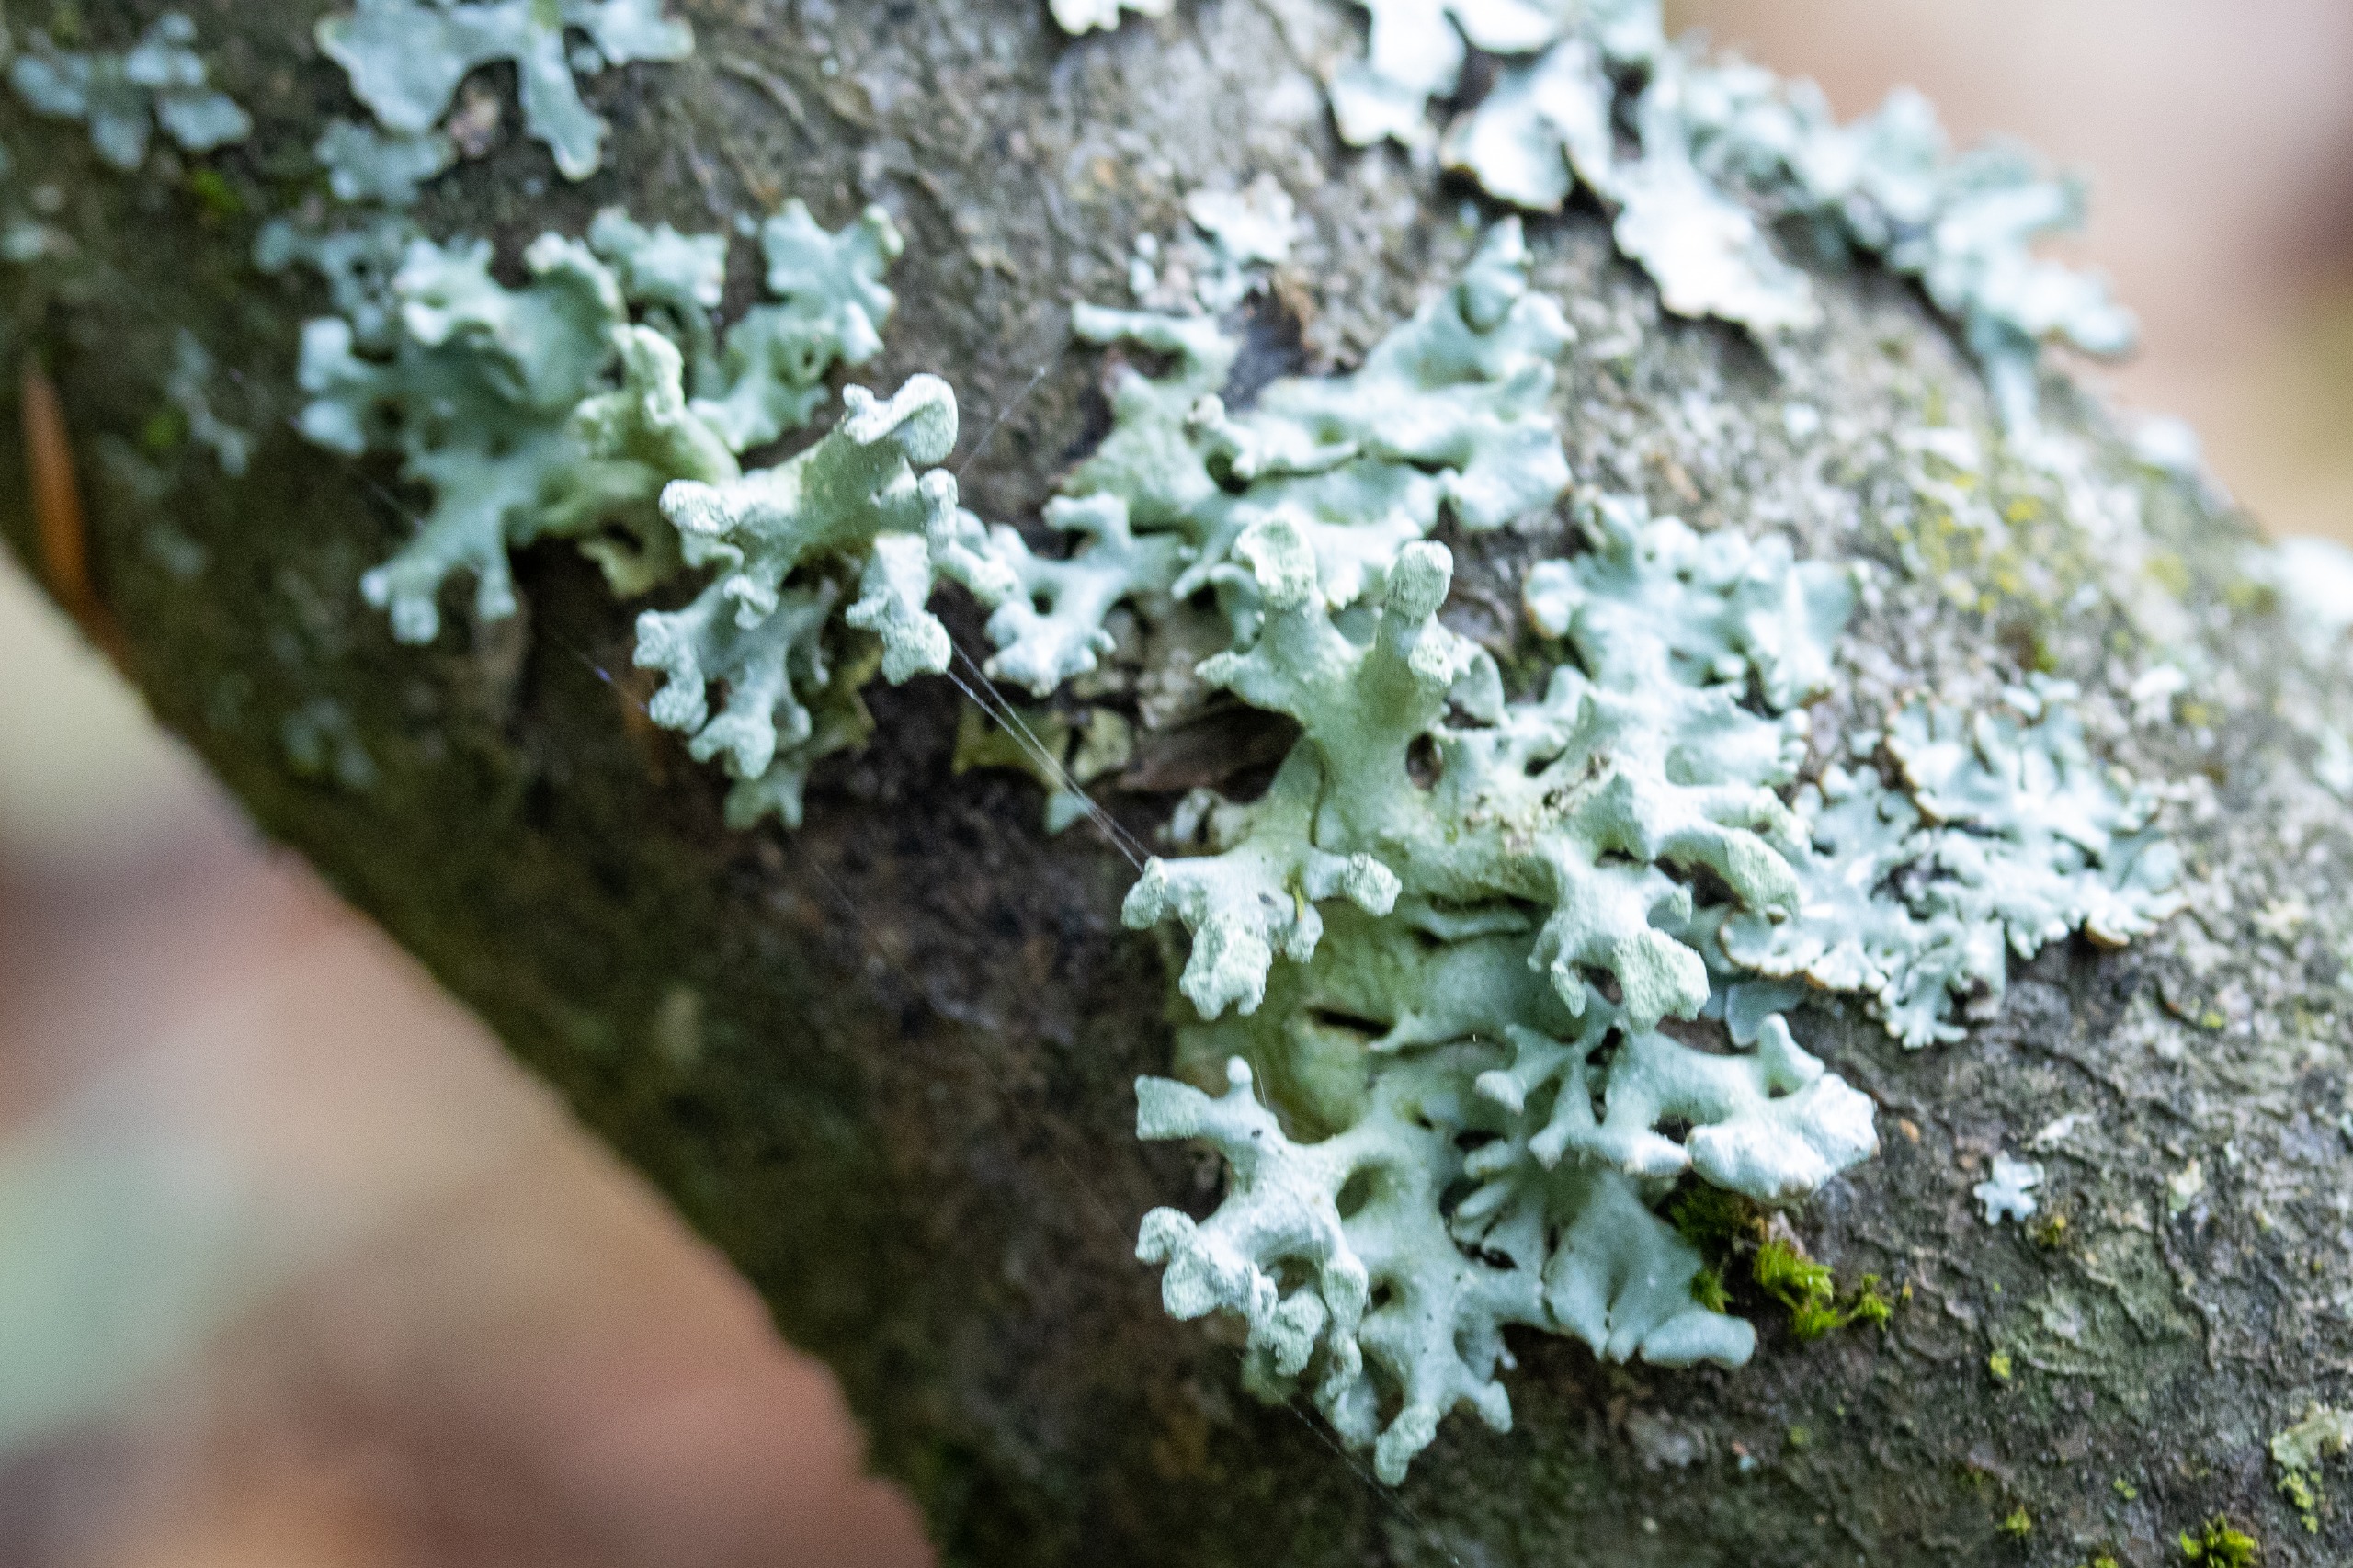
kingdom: Fungi
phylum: Ascomycota
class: Lecanoromycetes
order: Lecanorales
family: Parmeliaceae
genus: Hypogymnia
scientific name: Hypogymnia tubulosa
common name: Finger-kvistlav
